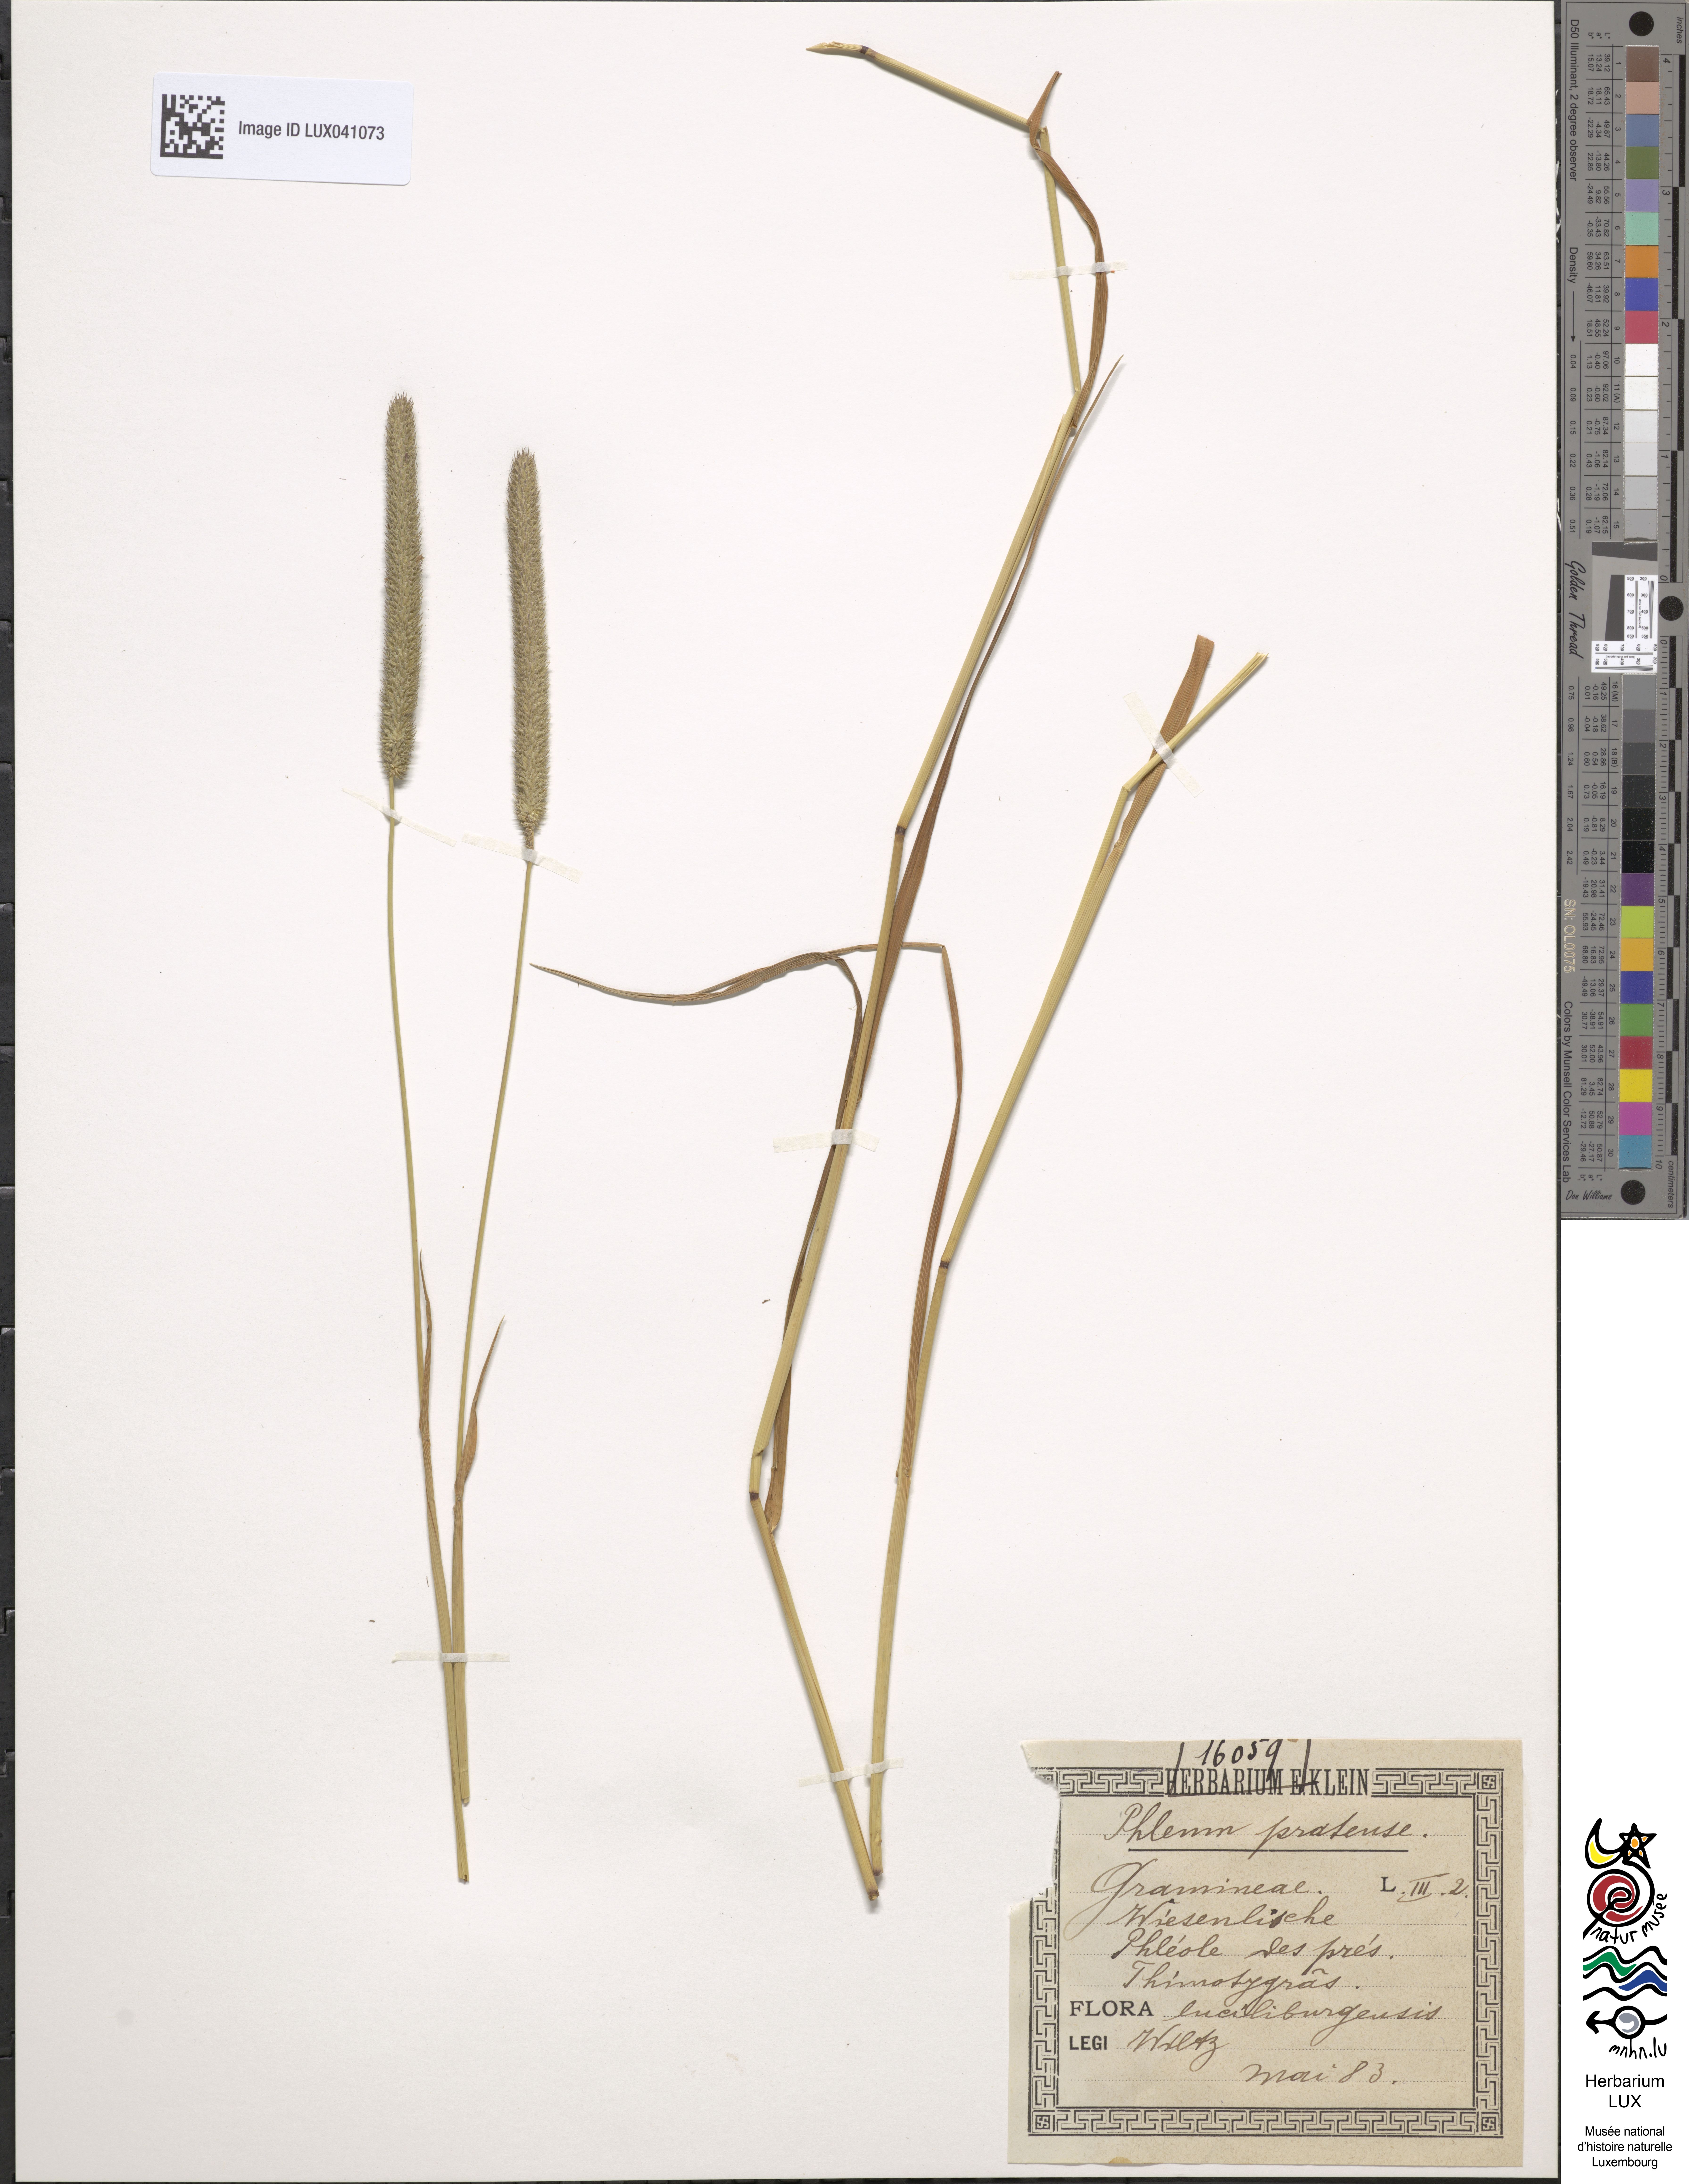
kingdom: Plantae
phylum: Tracheophyta
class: Liliopsida
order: Poales
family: Poaceae
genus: Phleum
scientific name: Phleum pratense
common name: Timothy grass
